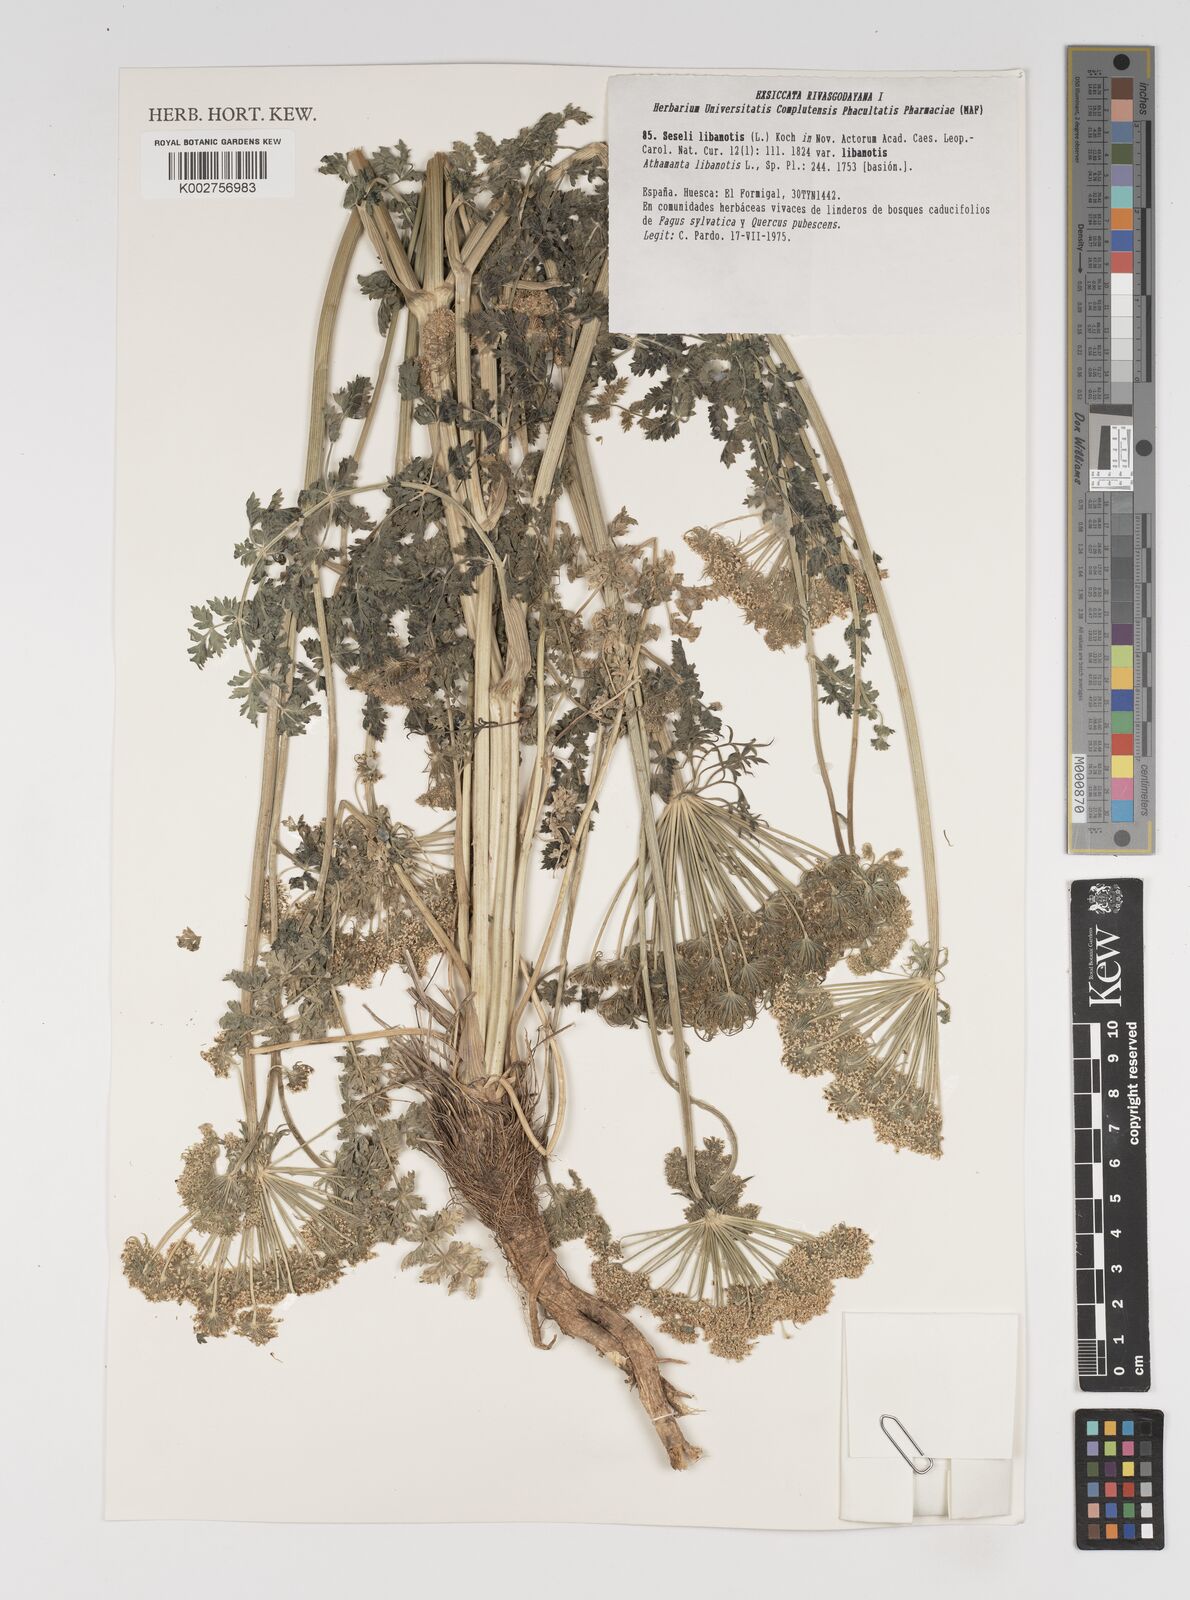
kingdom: Plantae
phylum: Tracheophyta
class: Magnoliopsida
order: Apiales
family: Apiaceae
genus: Seseli
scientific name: Seseli libanotis
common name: Mooncarrot
